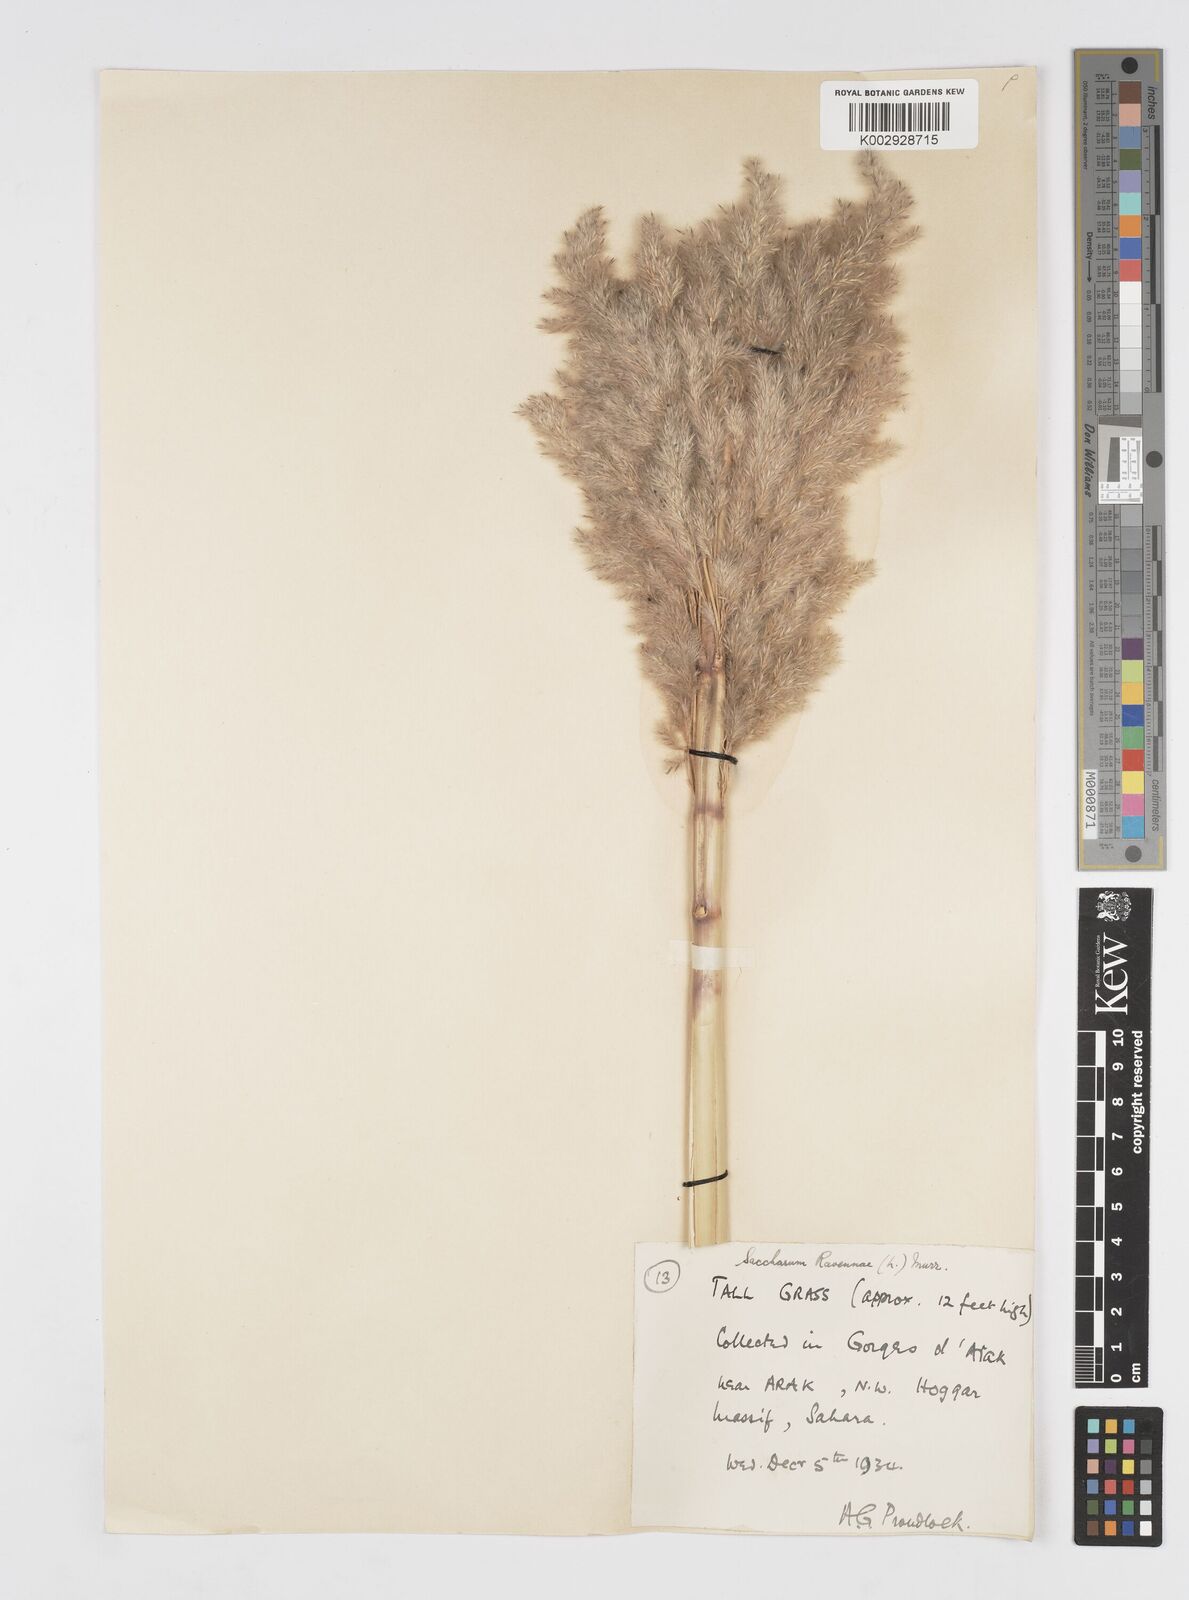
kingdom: Plantae
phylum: Tracheophyta
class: Liliopsida
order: Poales
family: Poaceae
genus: Tripidium
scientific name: Tripidium ravennae
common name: Ravenna grass
